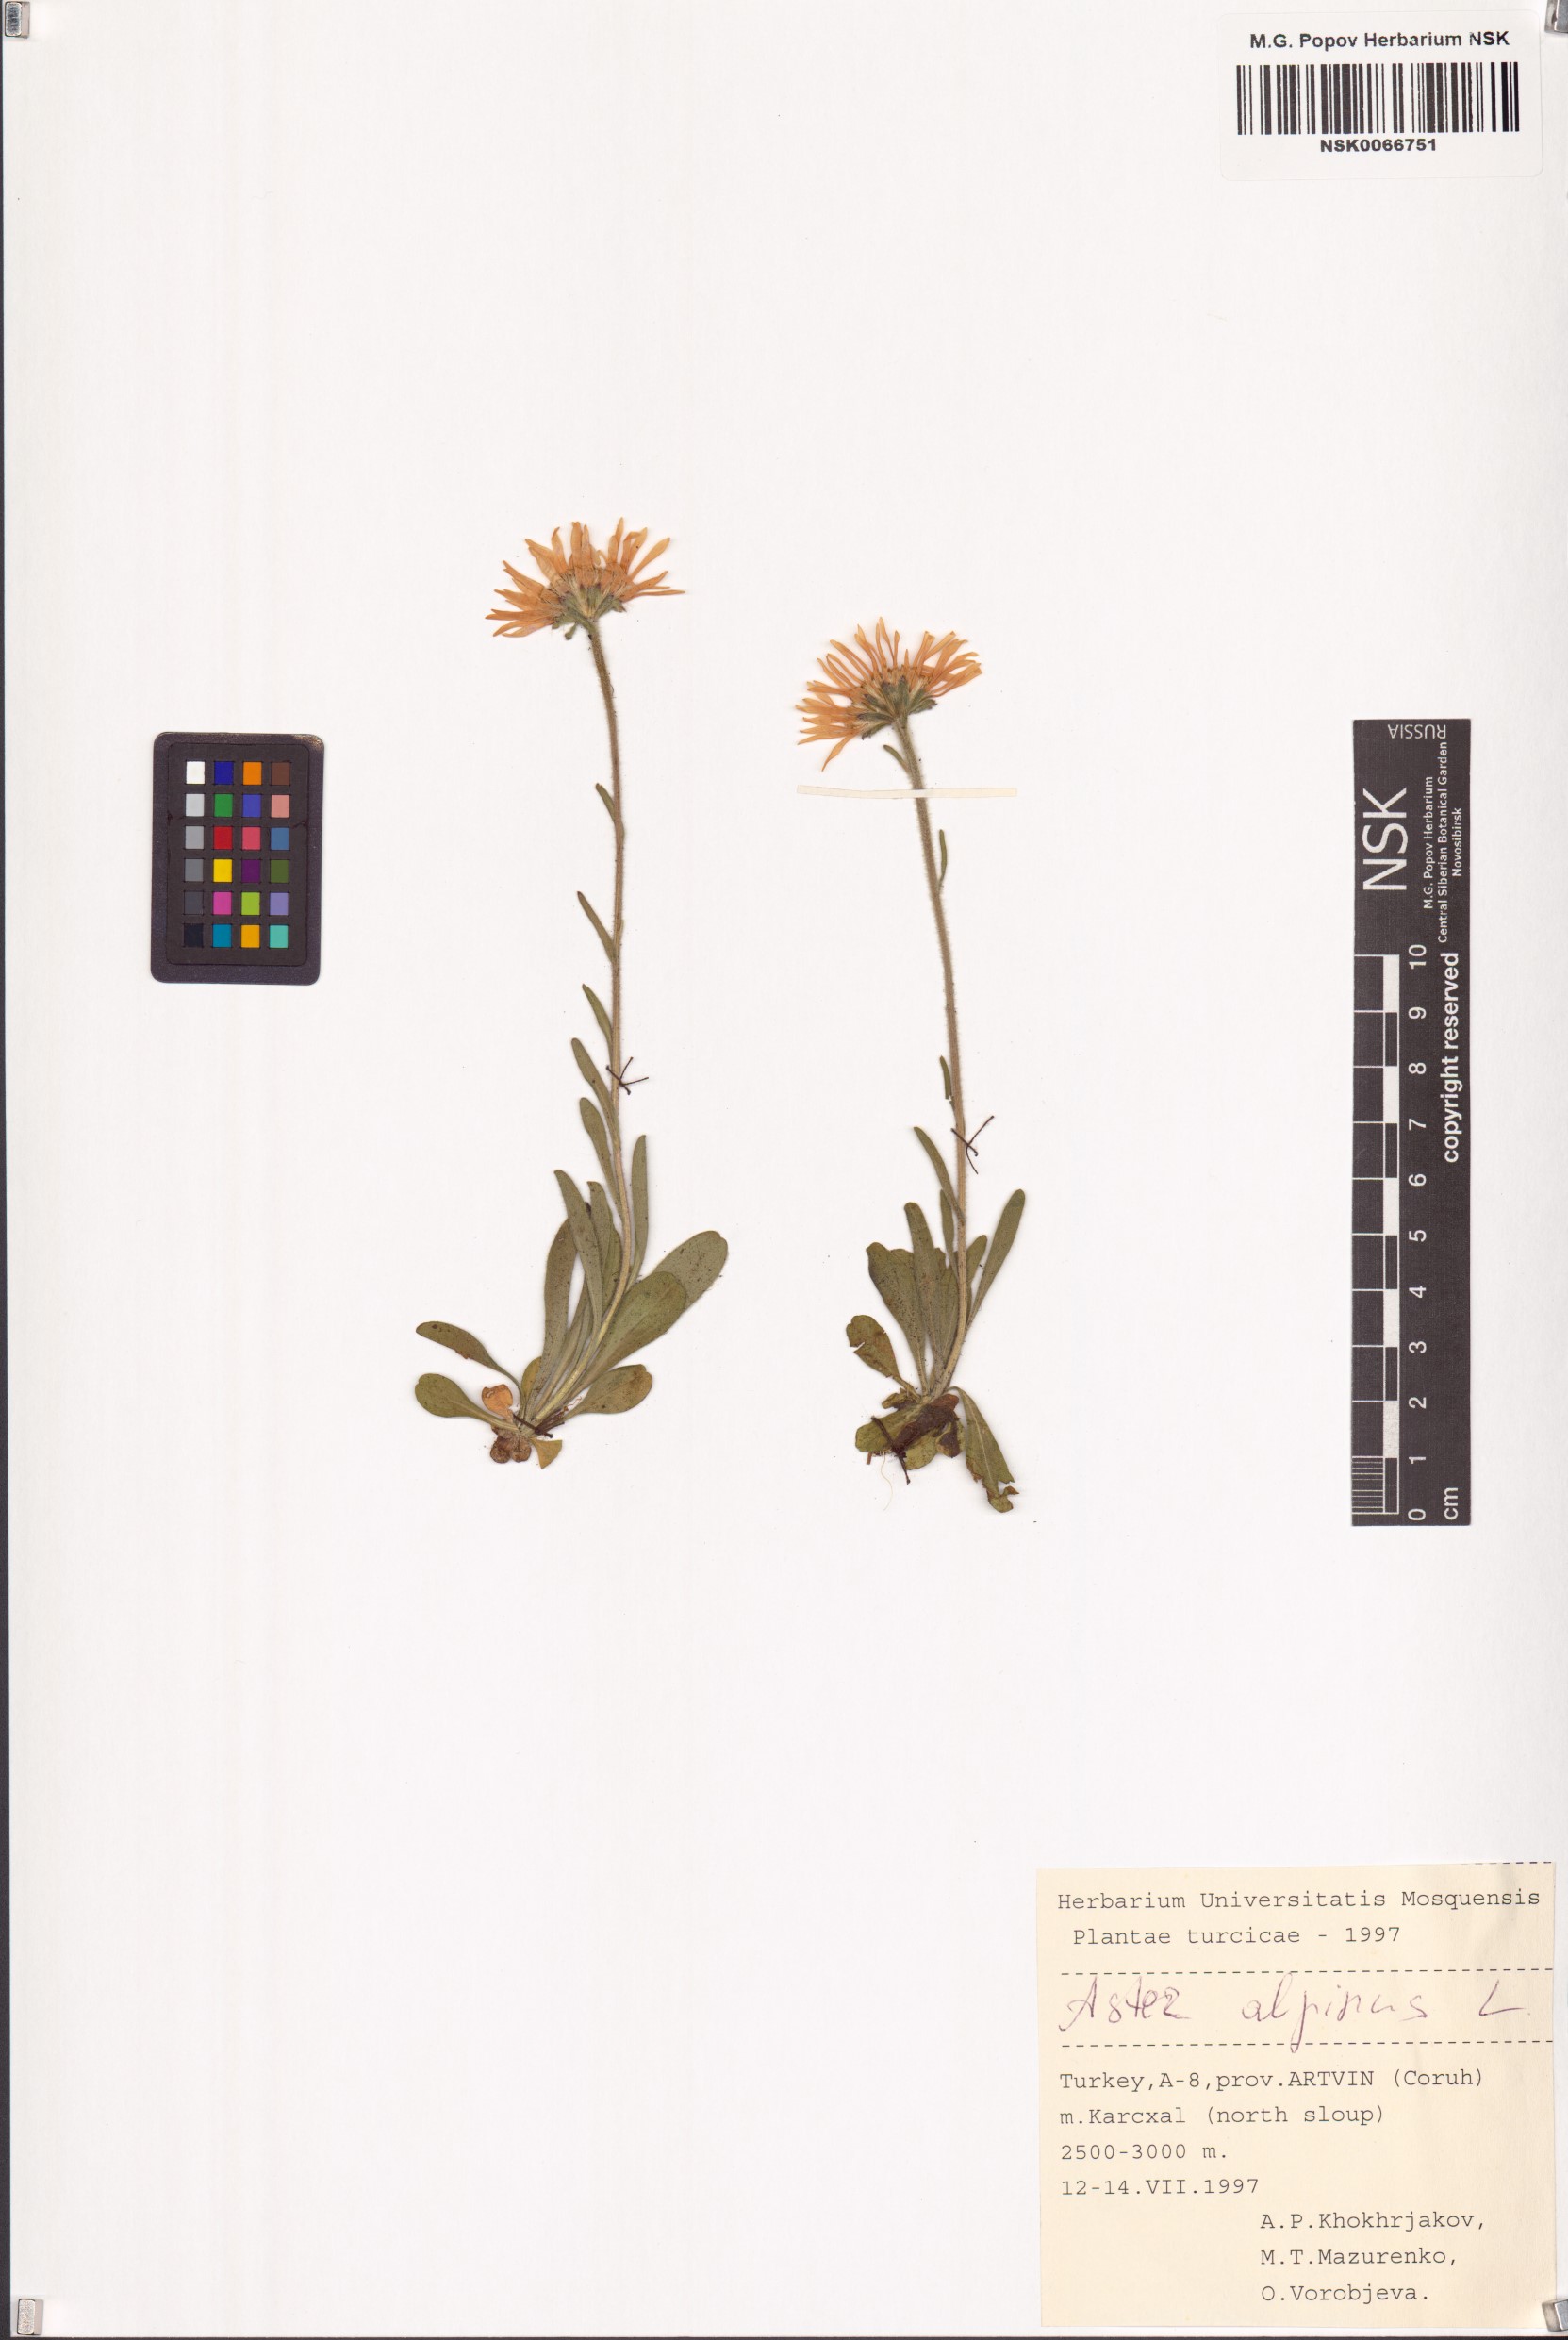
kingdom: Plantae
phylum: Tracheophyta
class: Magnoliopsida
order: Asterales
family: Asteraceae
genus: Aster
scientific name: Aster alpinus
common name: Alpine aster
